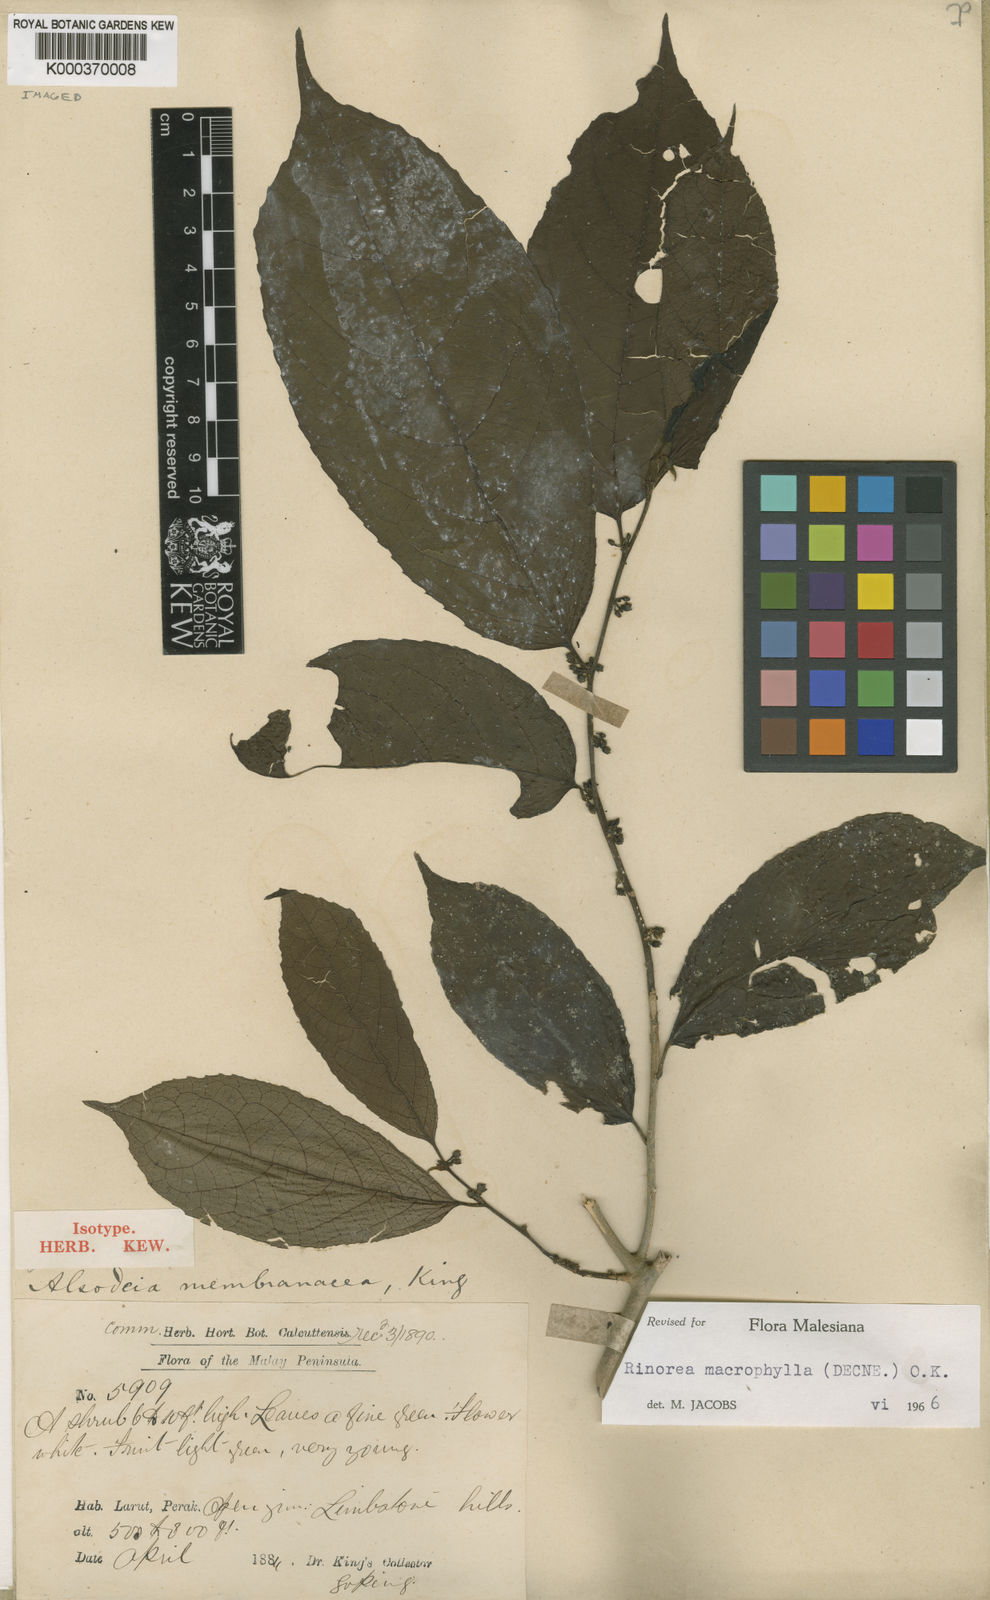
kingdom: Plantae
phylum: Tracheophyta
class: Magnoliopsida
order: Malpighiales
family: Violaceae
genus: Rinorea
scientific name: Rinorea macrophylla
